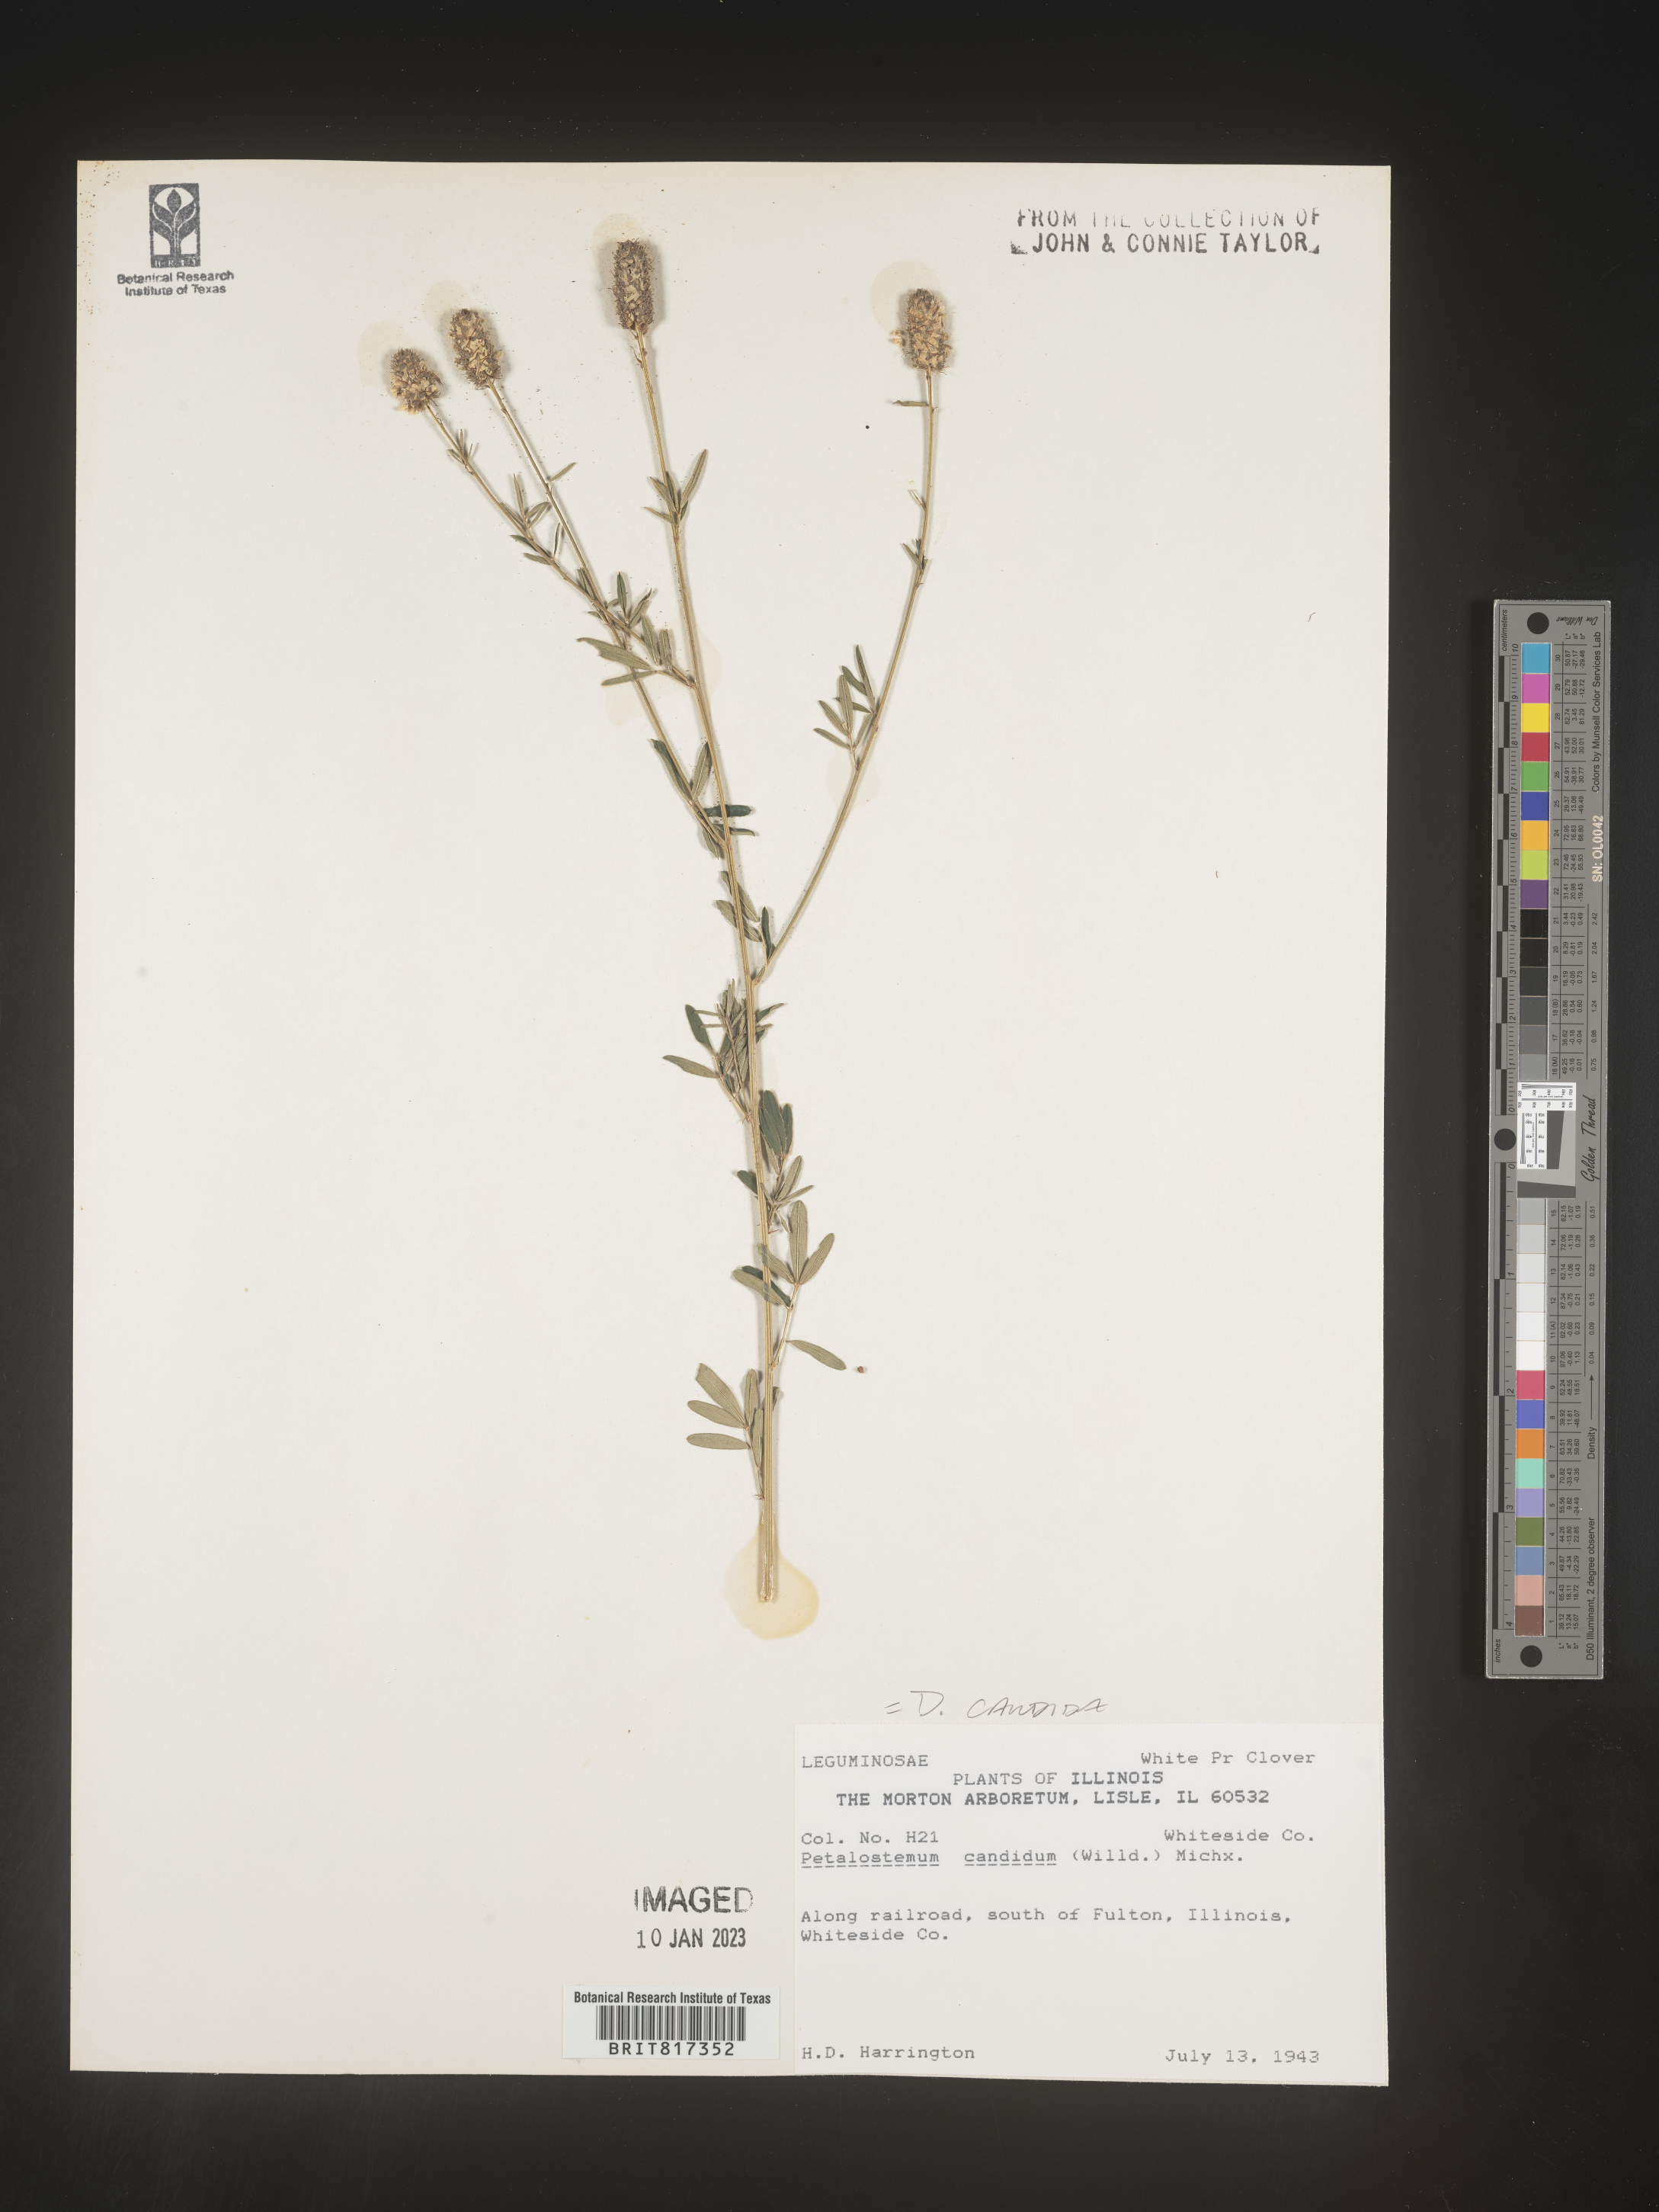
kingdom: Plantae
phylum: Tracheophyta
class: Magnoliopsida
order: Fabales
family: Fabaceae
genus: Dalea
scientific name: Dalea candida
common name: White prairie-clover
